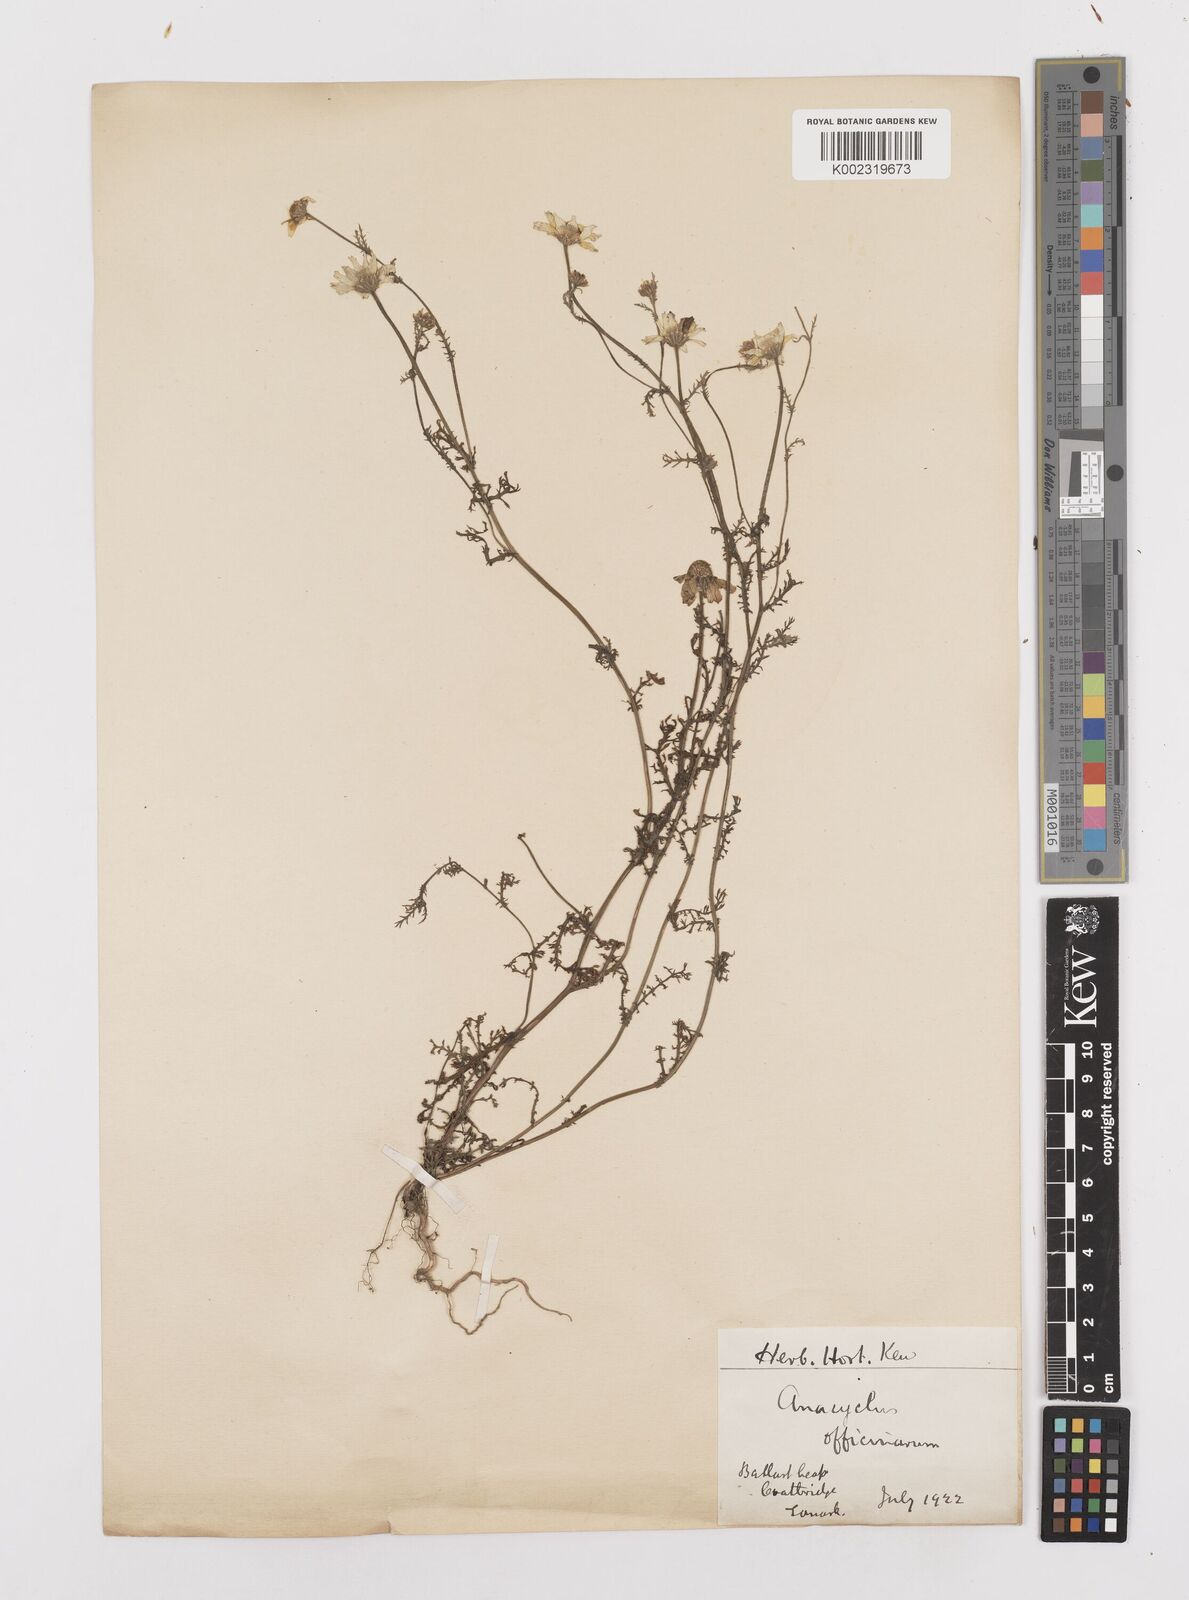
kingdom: Plantae
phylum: Tracheophyta
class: Magnoliopsida
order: Asterales
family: Asteraceae
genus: Anacyclus
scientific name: Anacyclus pyrethrum
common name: Mt. atlas daisy
